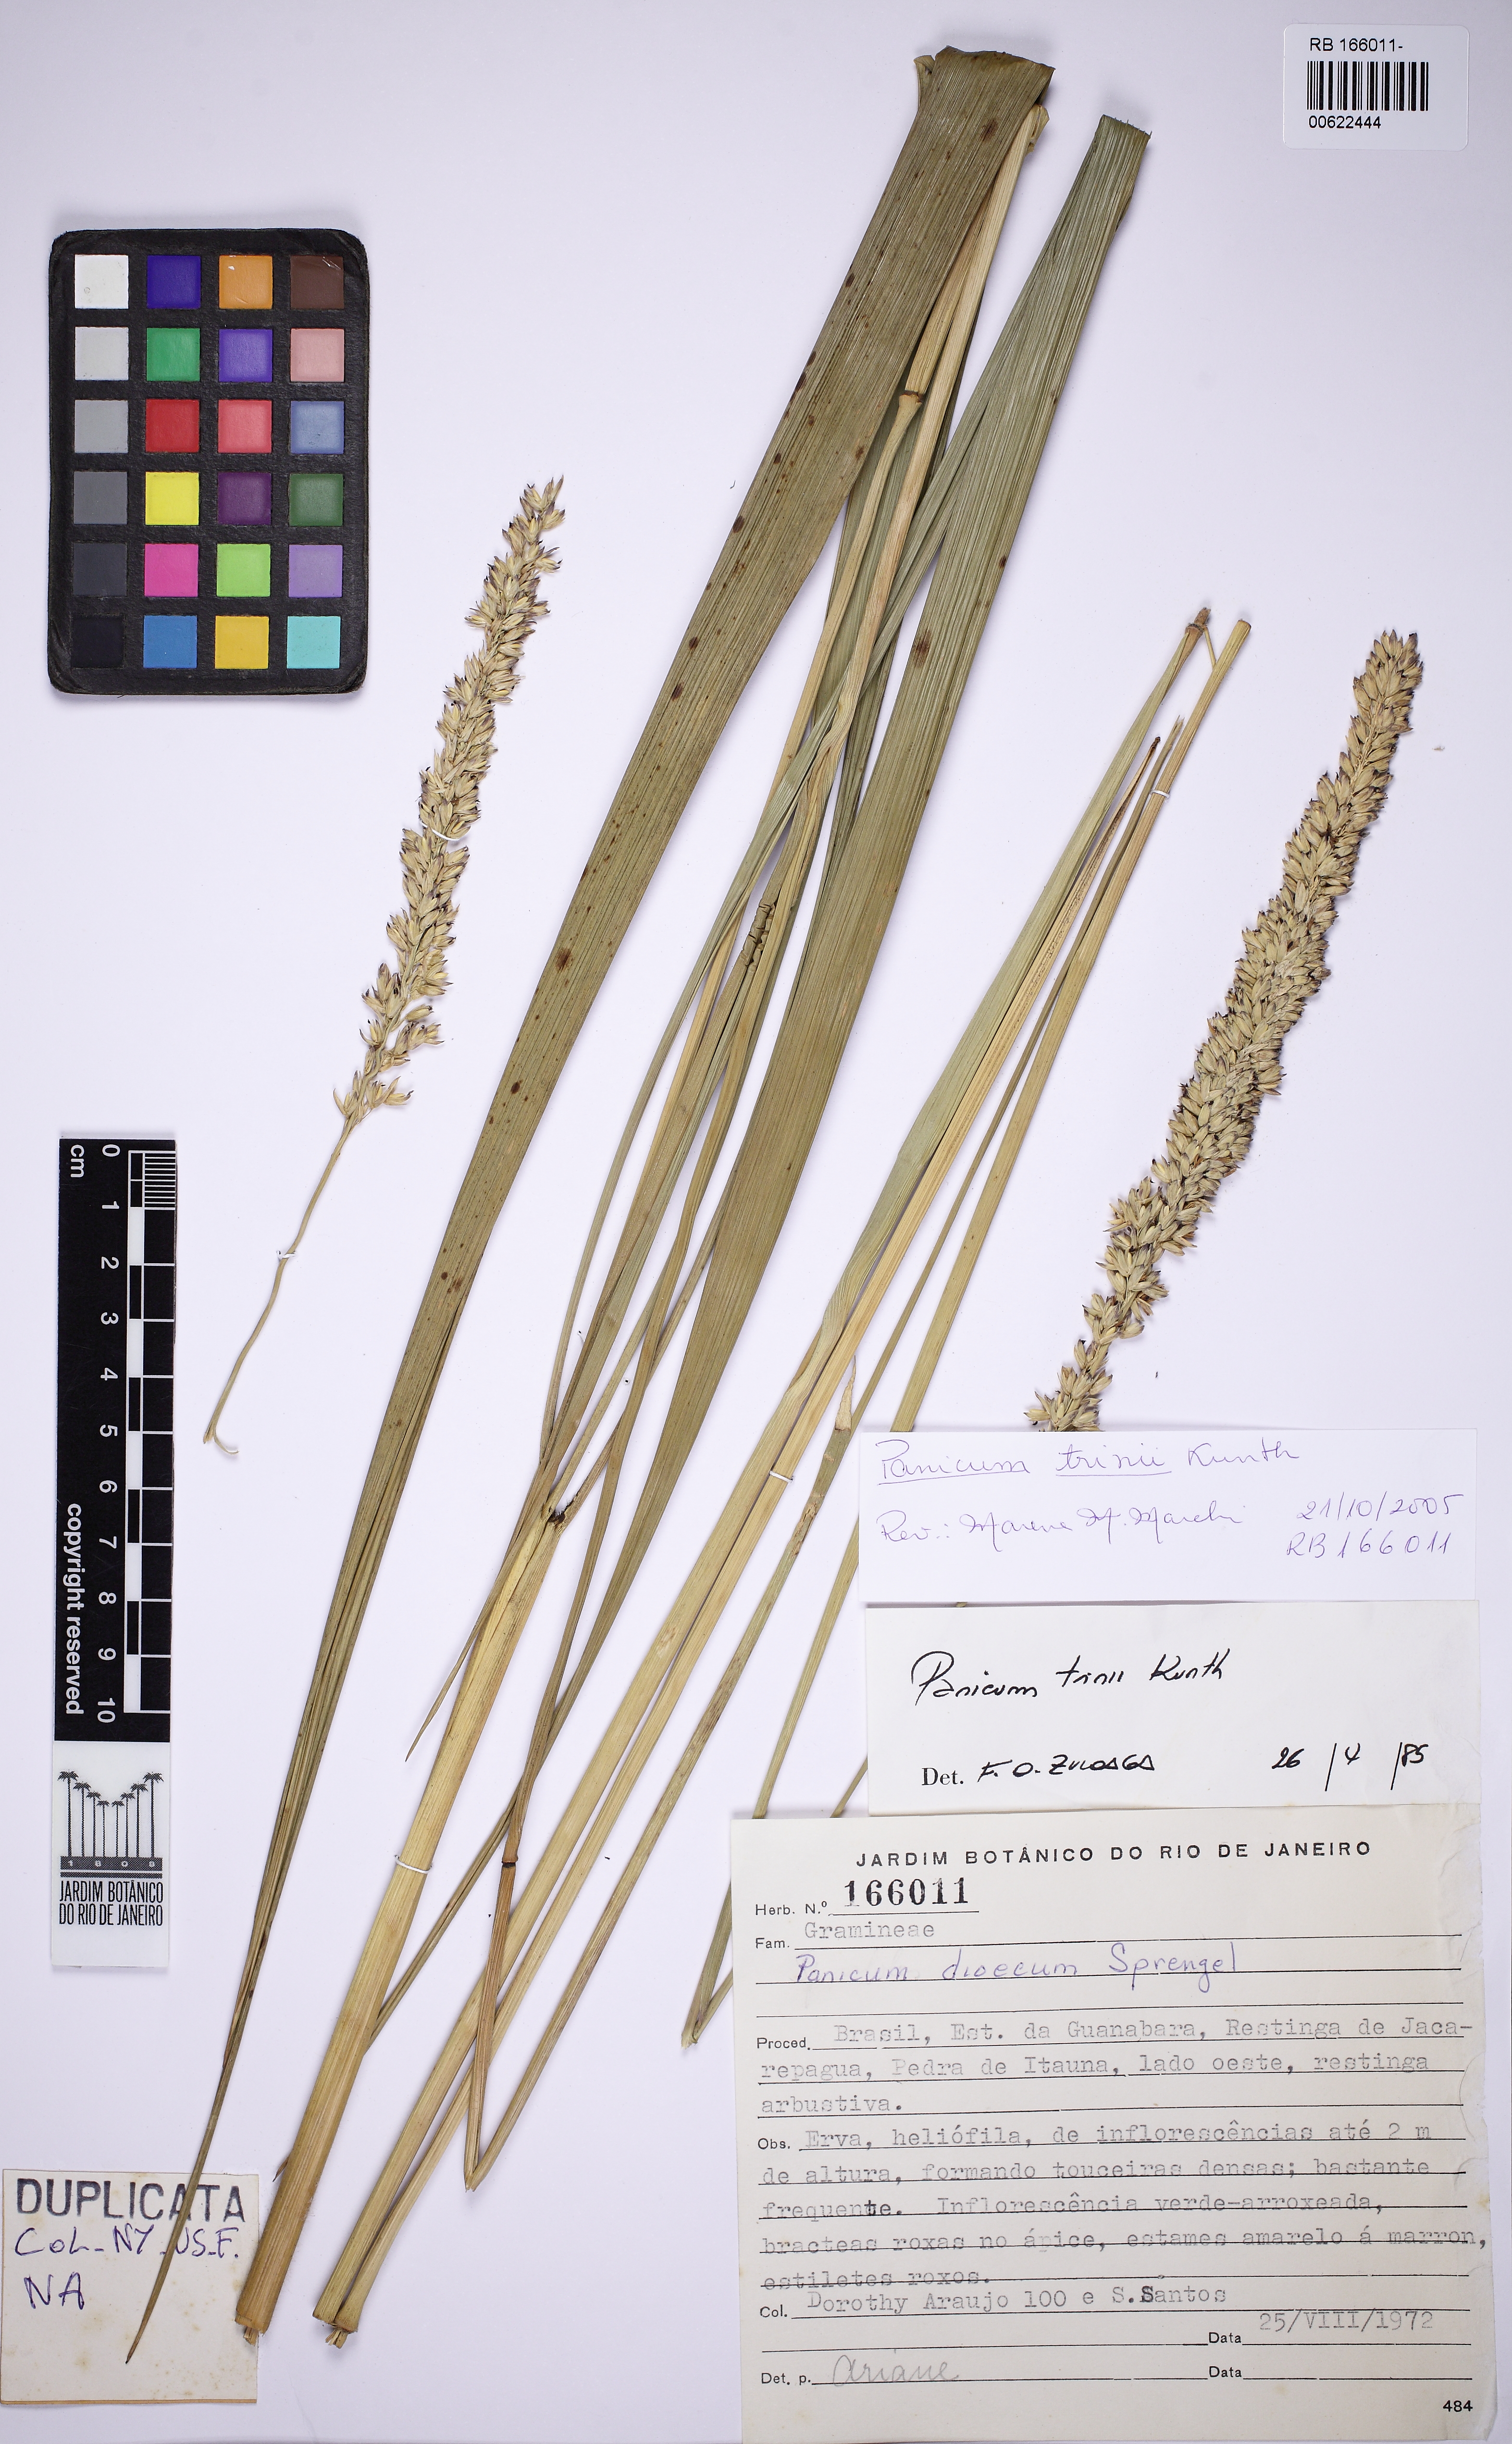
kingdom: Plantae
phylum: Tracheophyta
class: Liliopsida
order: Poales
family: Poaceae
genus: Renvoizea
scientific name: Renvoizea trinii
